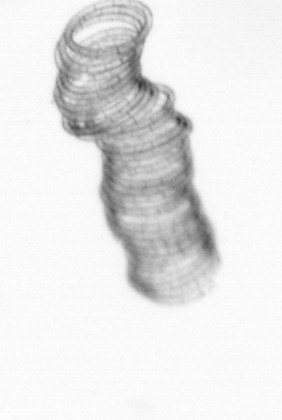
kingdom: Chromista
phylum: Ochrophyta
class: Bacillariophyceae
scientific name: Bacillariophyceae
